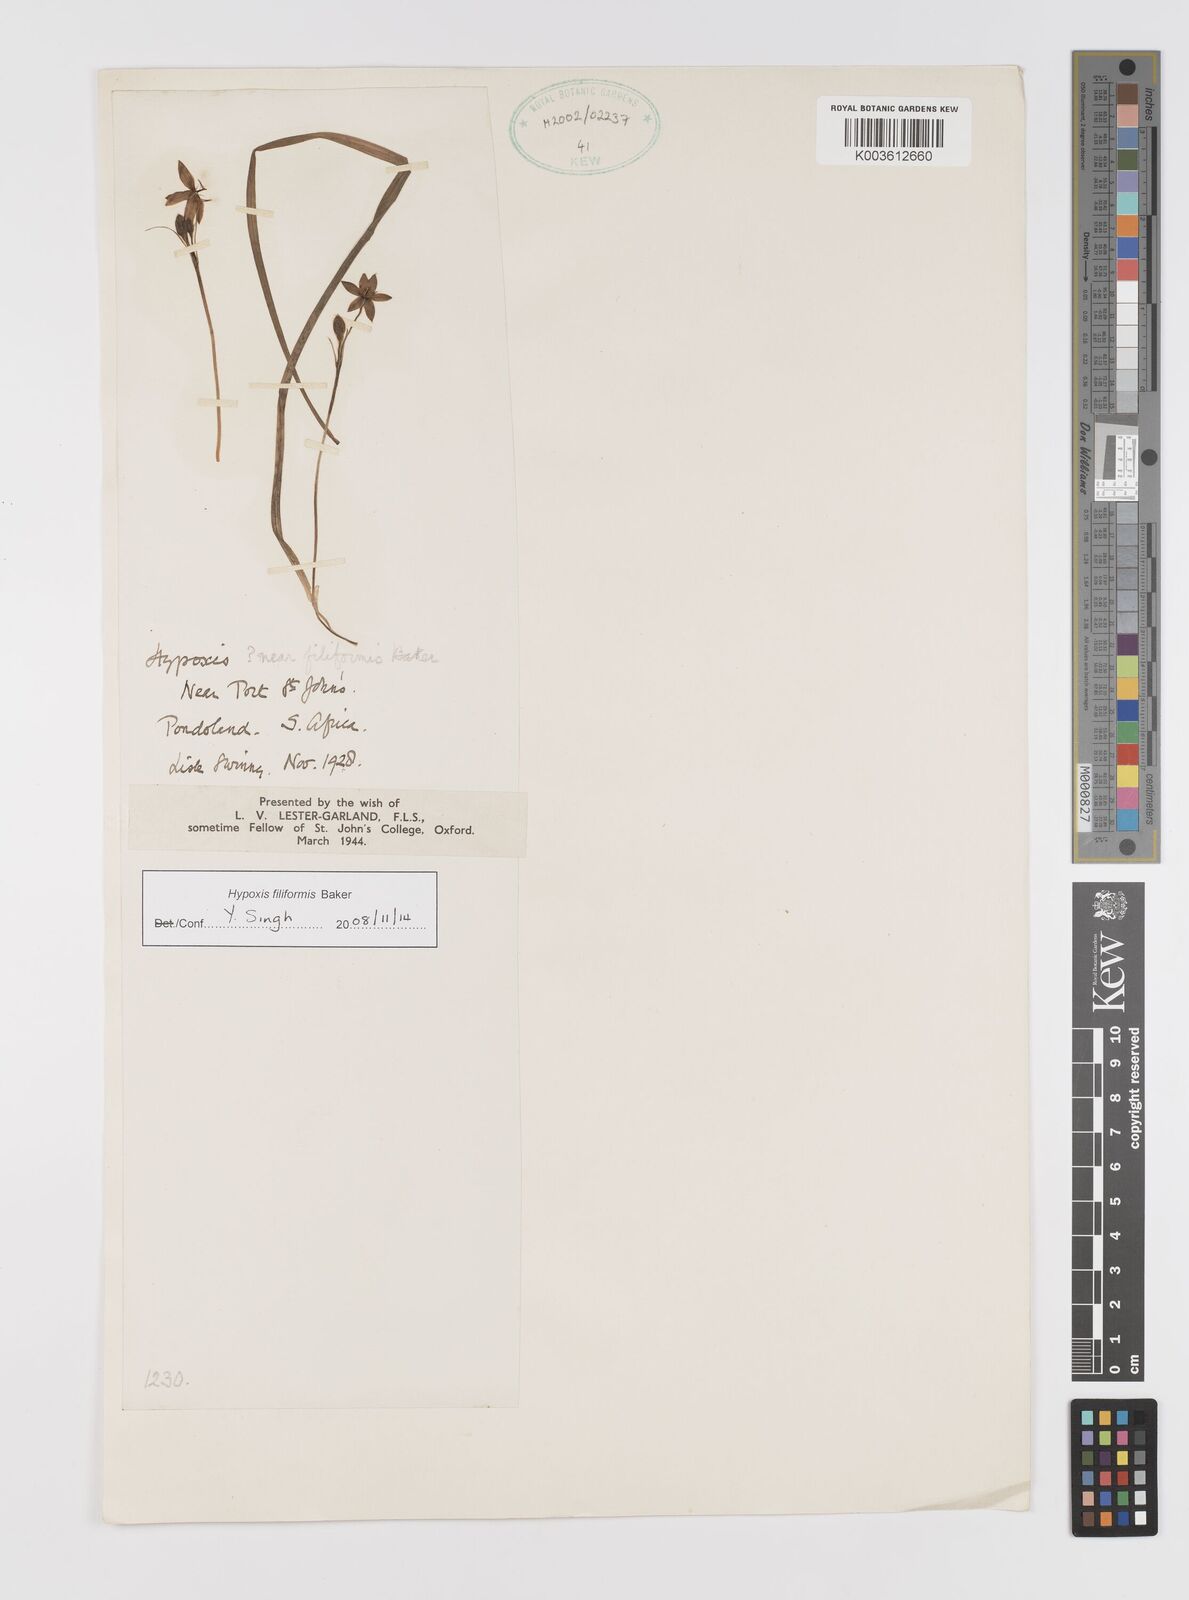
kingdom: Plantae
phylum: Tracheophyta
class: Liliopsida
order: Asparagales
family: Hypoxidaceae
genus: Hypoxis
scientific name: Hypoxis filiformis
